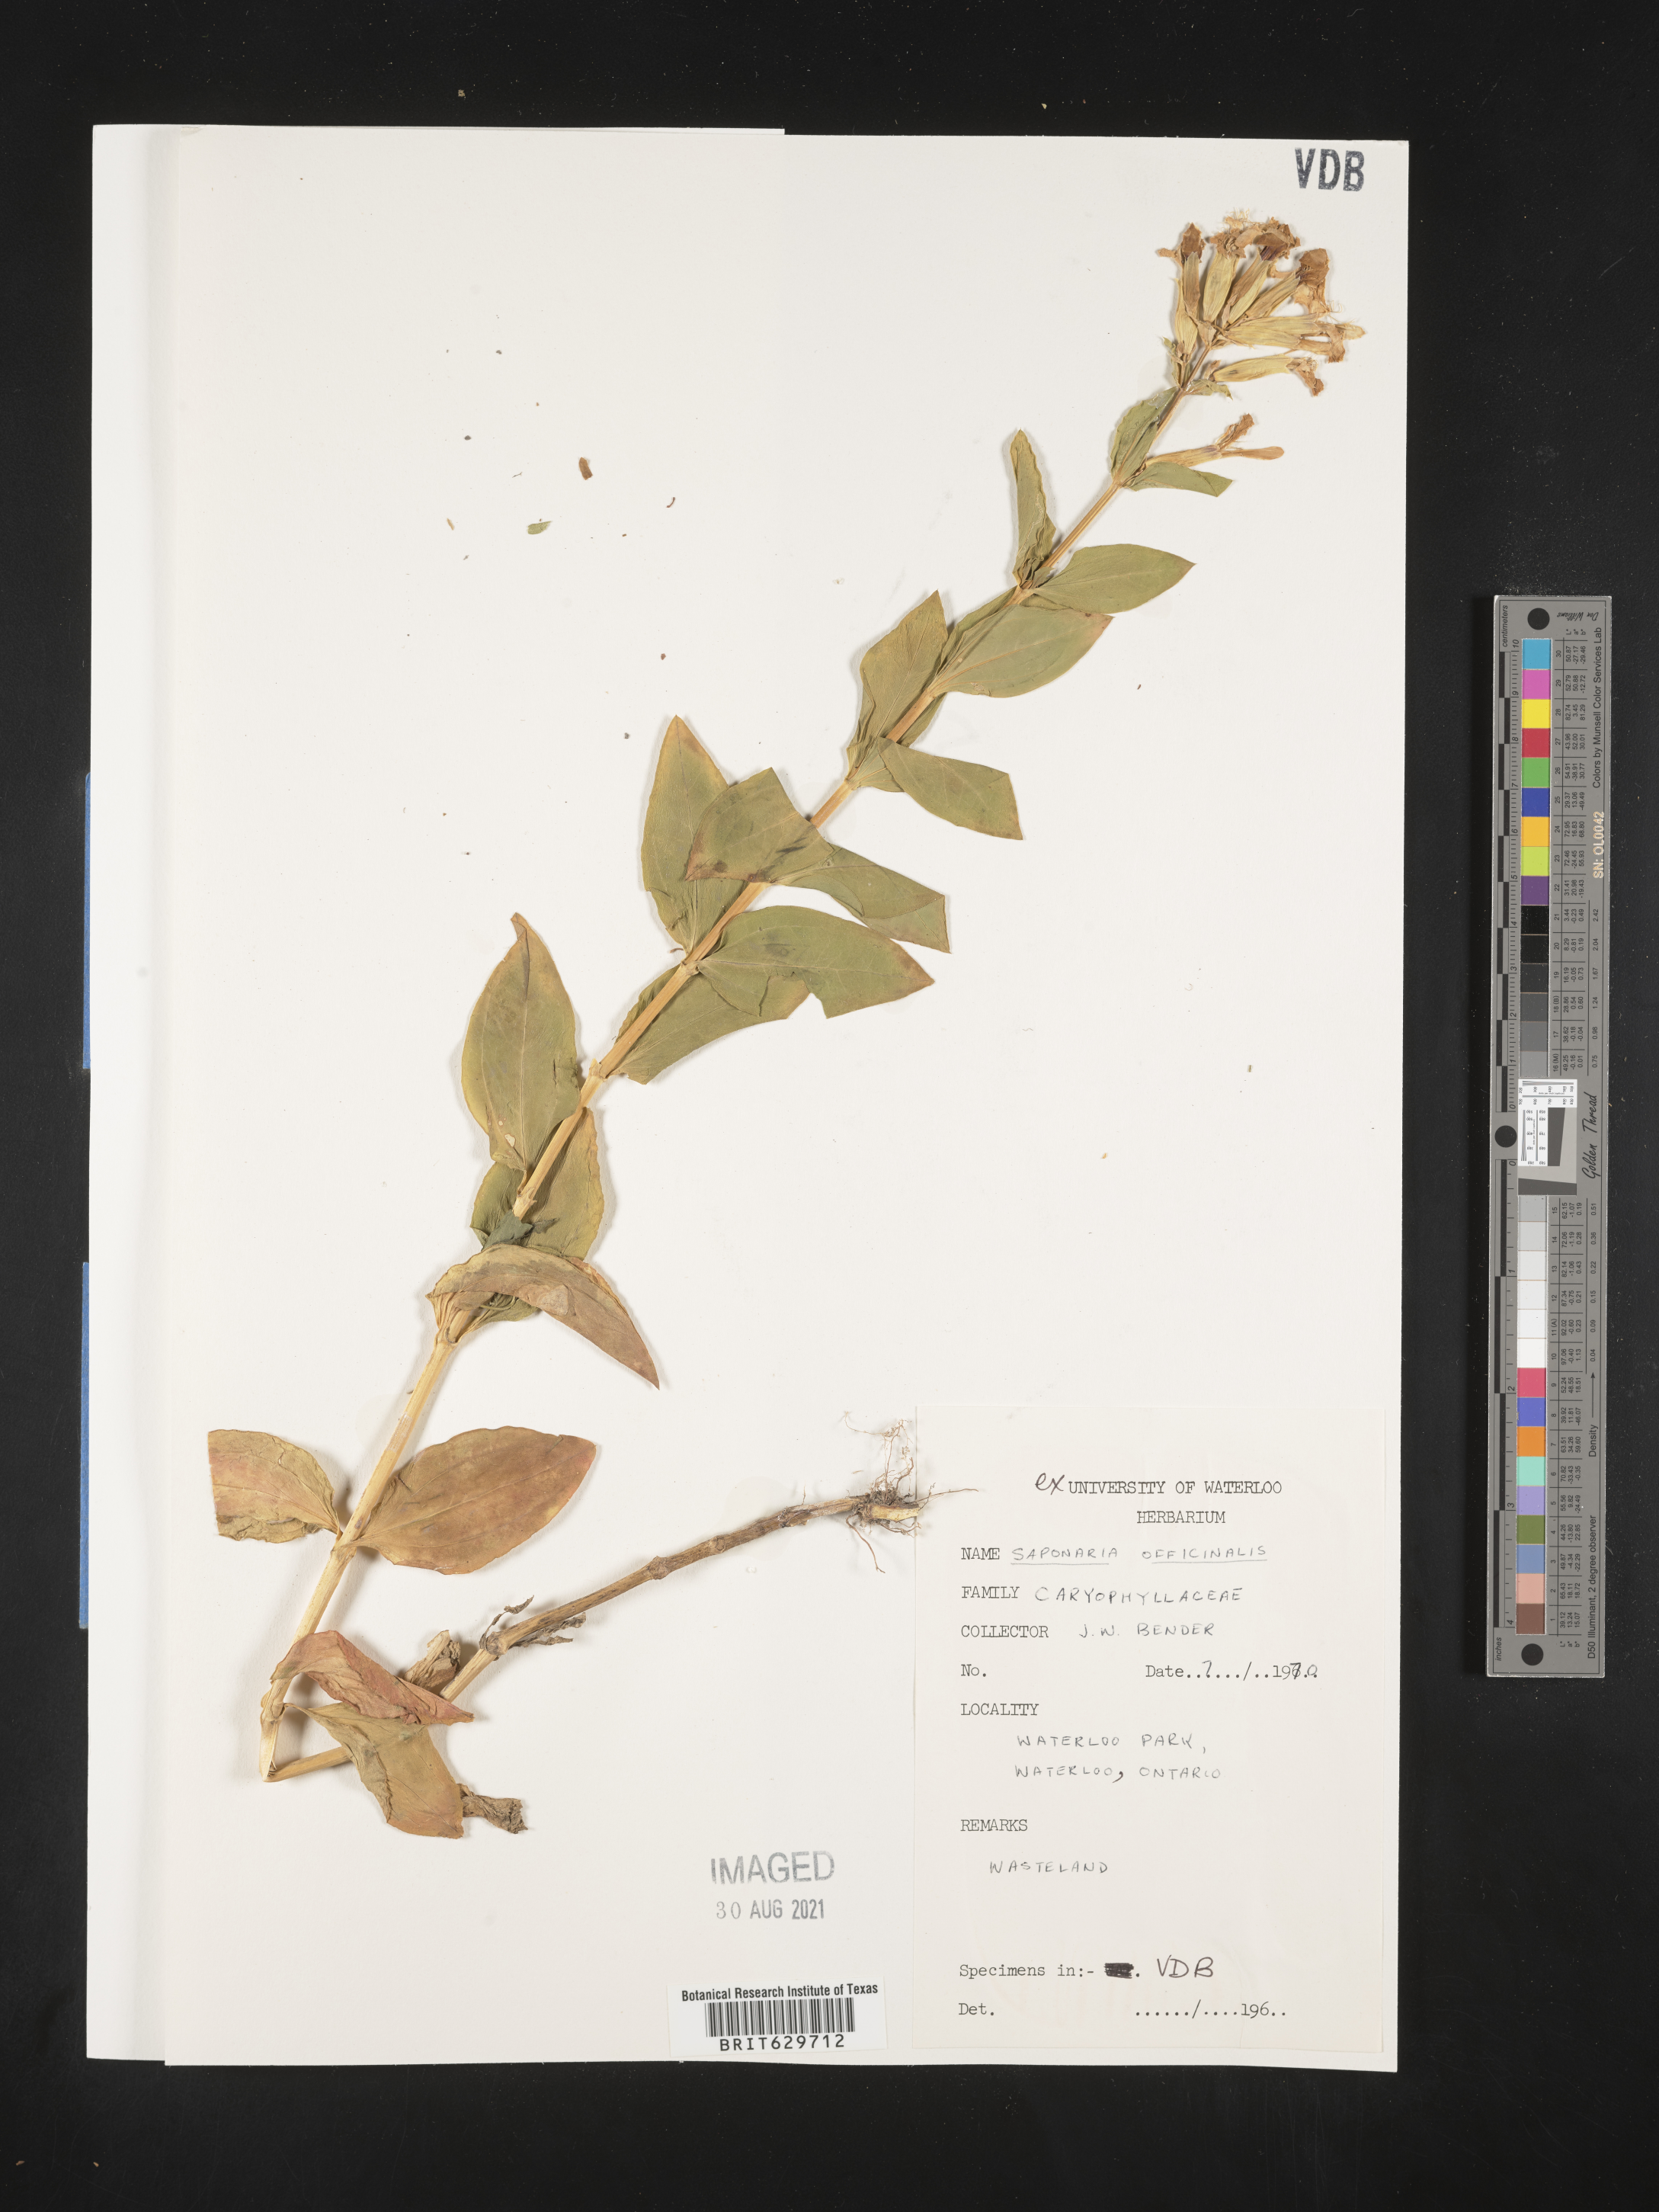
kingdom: Plantae
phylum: Tracheophyta
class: Magnoliopsida
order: Caryophyllales
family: Caryophyllaceae
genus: Saponaria
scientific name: Saponaria officinalis
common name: Soapwort
